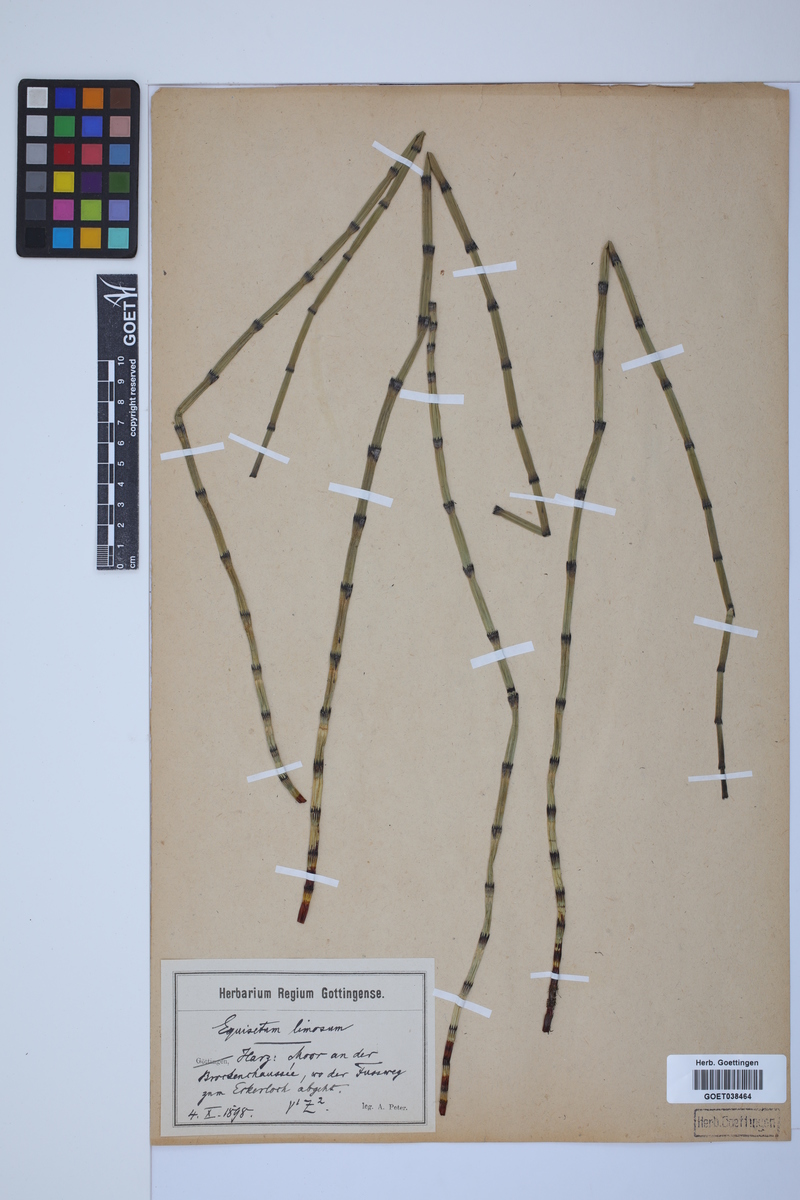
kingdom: Plantae
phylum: Tracheophyta
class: Polypodiopsida
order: Equisetales
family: Equisetaceae
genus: Equisetum
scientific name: Equisetum fluviatile
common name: Water horsetail
